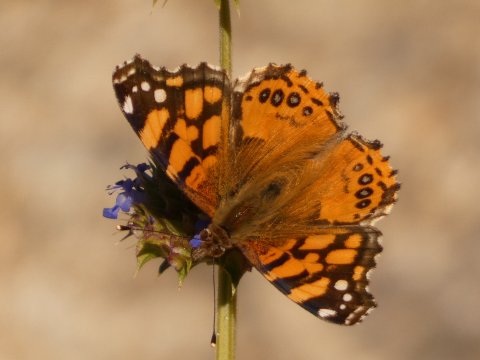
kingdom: Animalia
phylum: Arthropoda
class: Insecta
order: Lepidoptera
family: Nymphalidae
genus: Vanessa
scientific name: Vanessa annabella
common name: West Coast Lady
